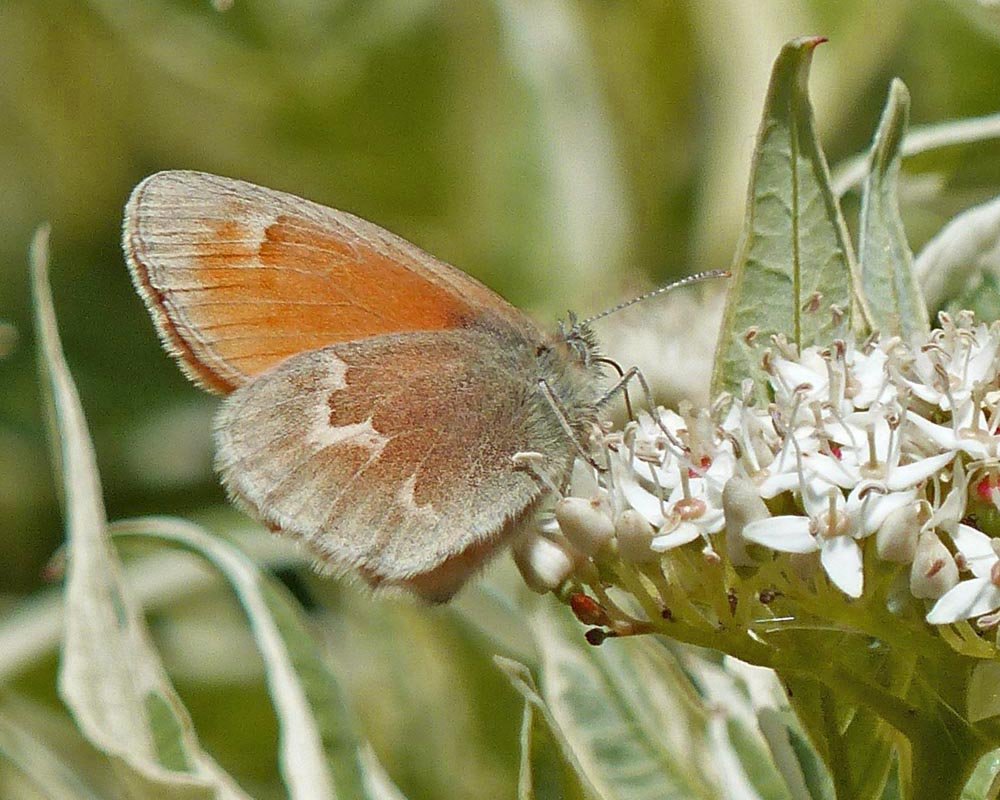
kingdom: Animalia
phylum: Arthropoda
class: Insecta
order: Lepidoptera
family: Nymphalidae
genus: Coenonympha
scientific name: Coenonympha tullia
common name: Large Heath
